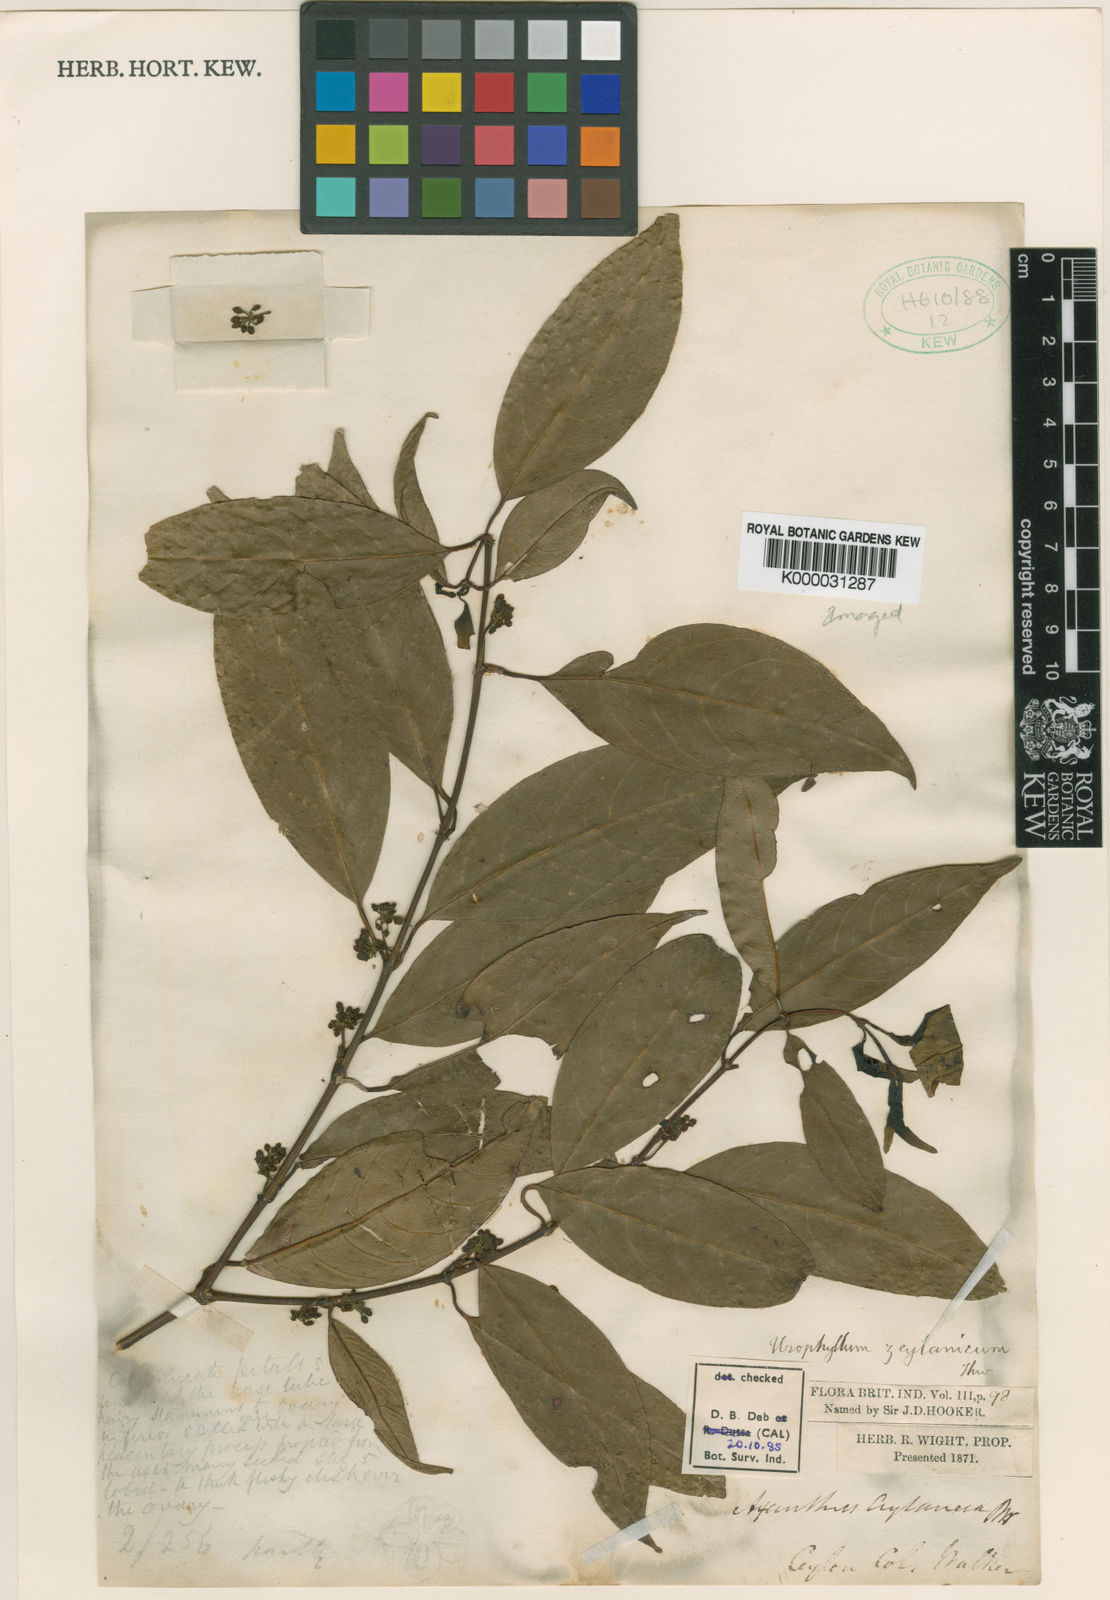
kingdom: Plantae
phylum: Tracheophyta
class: Magnoliopsida
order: Gentianales
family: Rubiaceae
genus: Urophyllum
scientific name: Urophyllum
